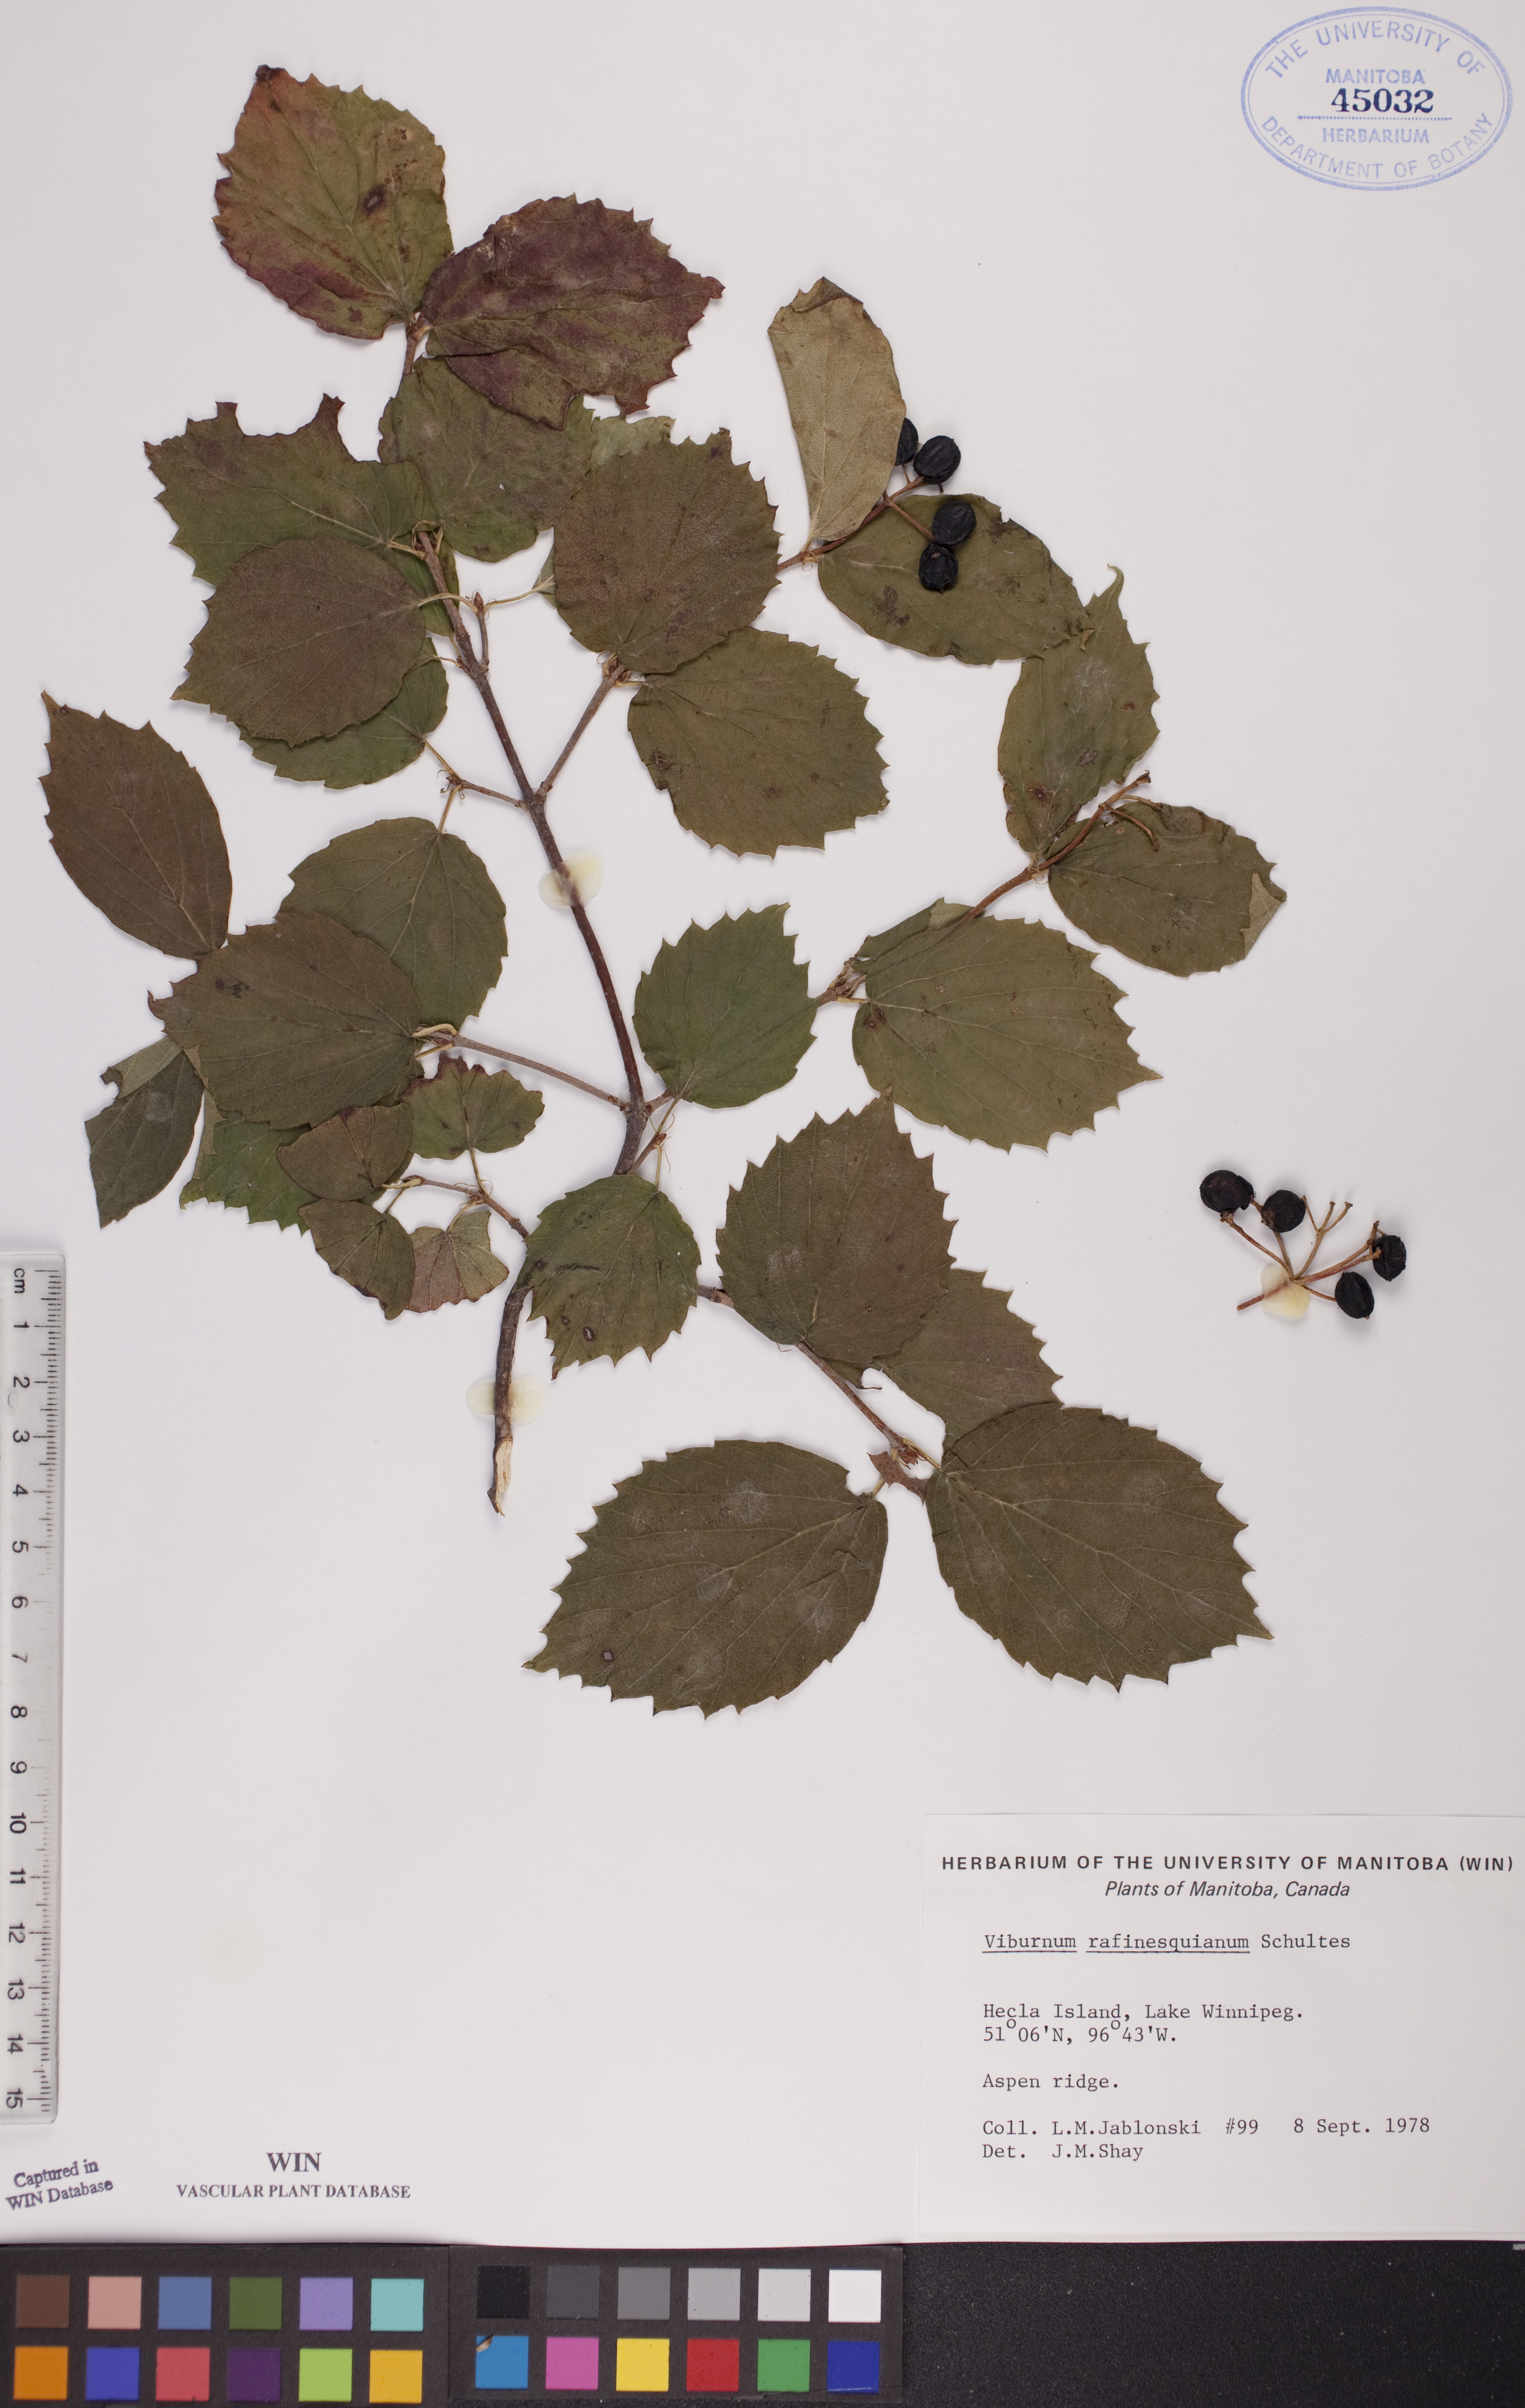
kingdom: Plantae
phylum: Tracheophyta
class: Magnoliopsida
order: Dipsacales
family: Viburnaceae
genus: Viburnum
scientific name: Viburnum rafinesquianum
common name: Downy arrow-wood
